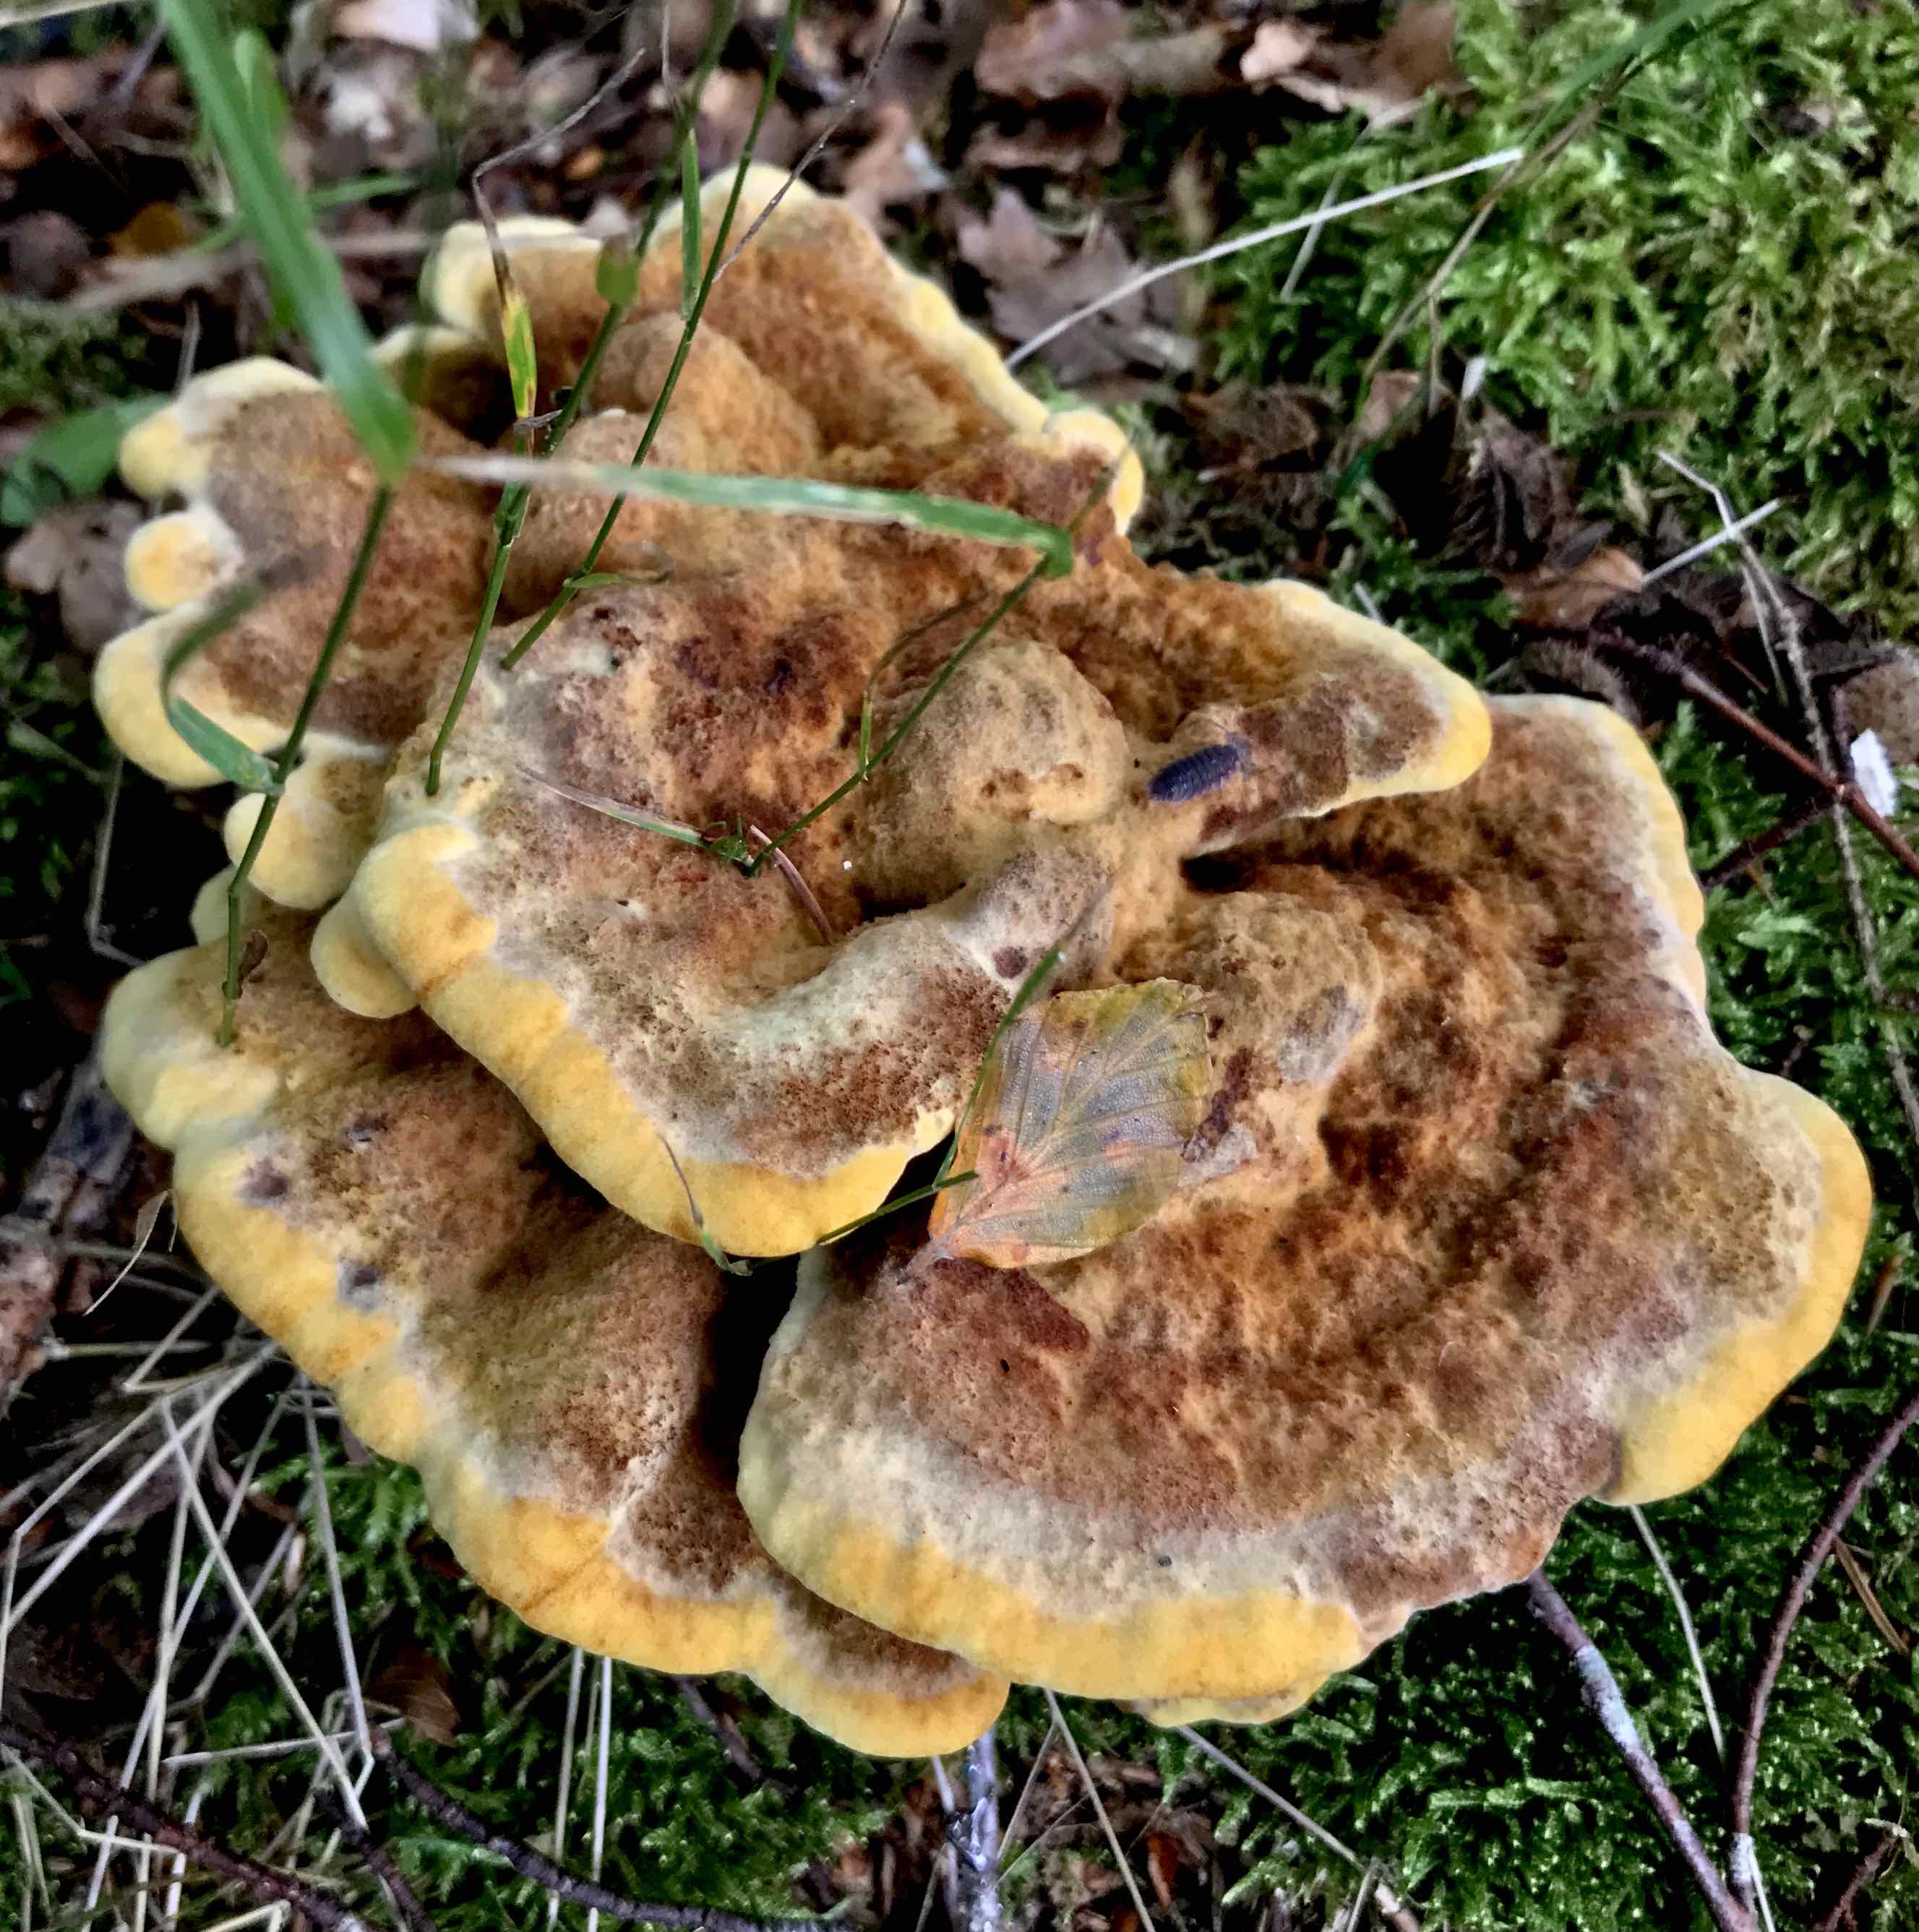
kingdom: Fungi
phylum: Basidiomycota
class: Agaricomycetes
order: Polyporales
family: Laetiporaceae
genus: Phaeolus
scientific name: Phaeolus schweinitzii
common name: brunporesvamp
